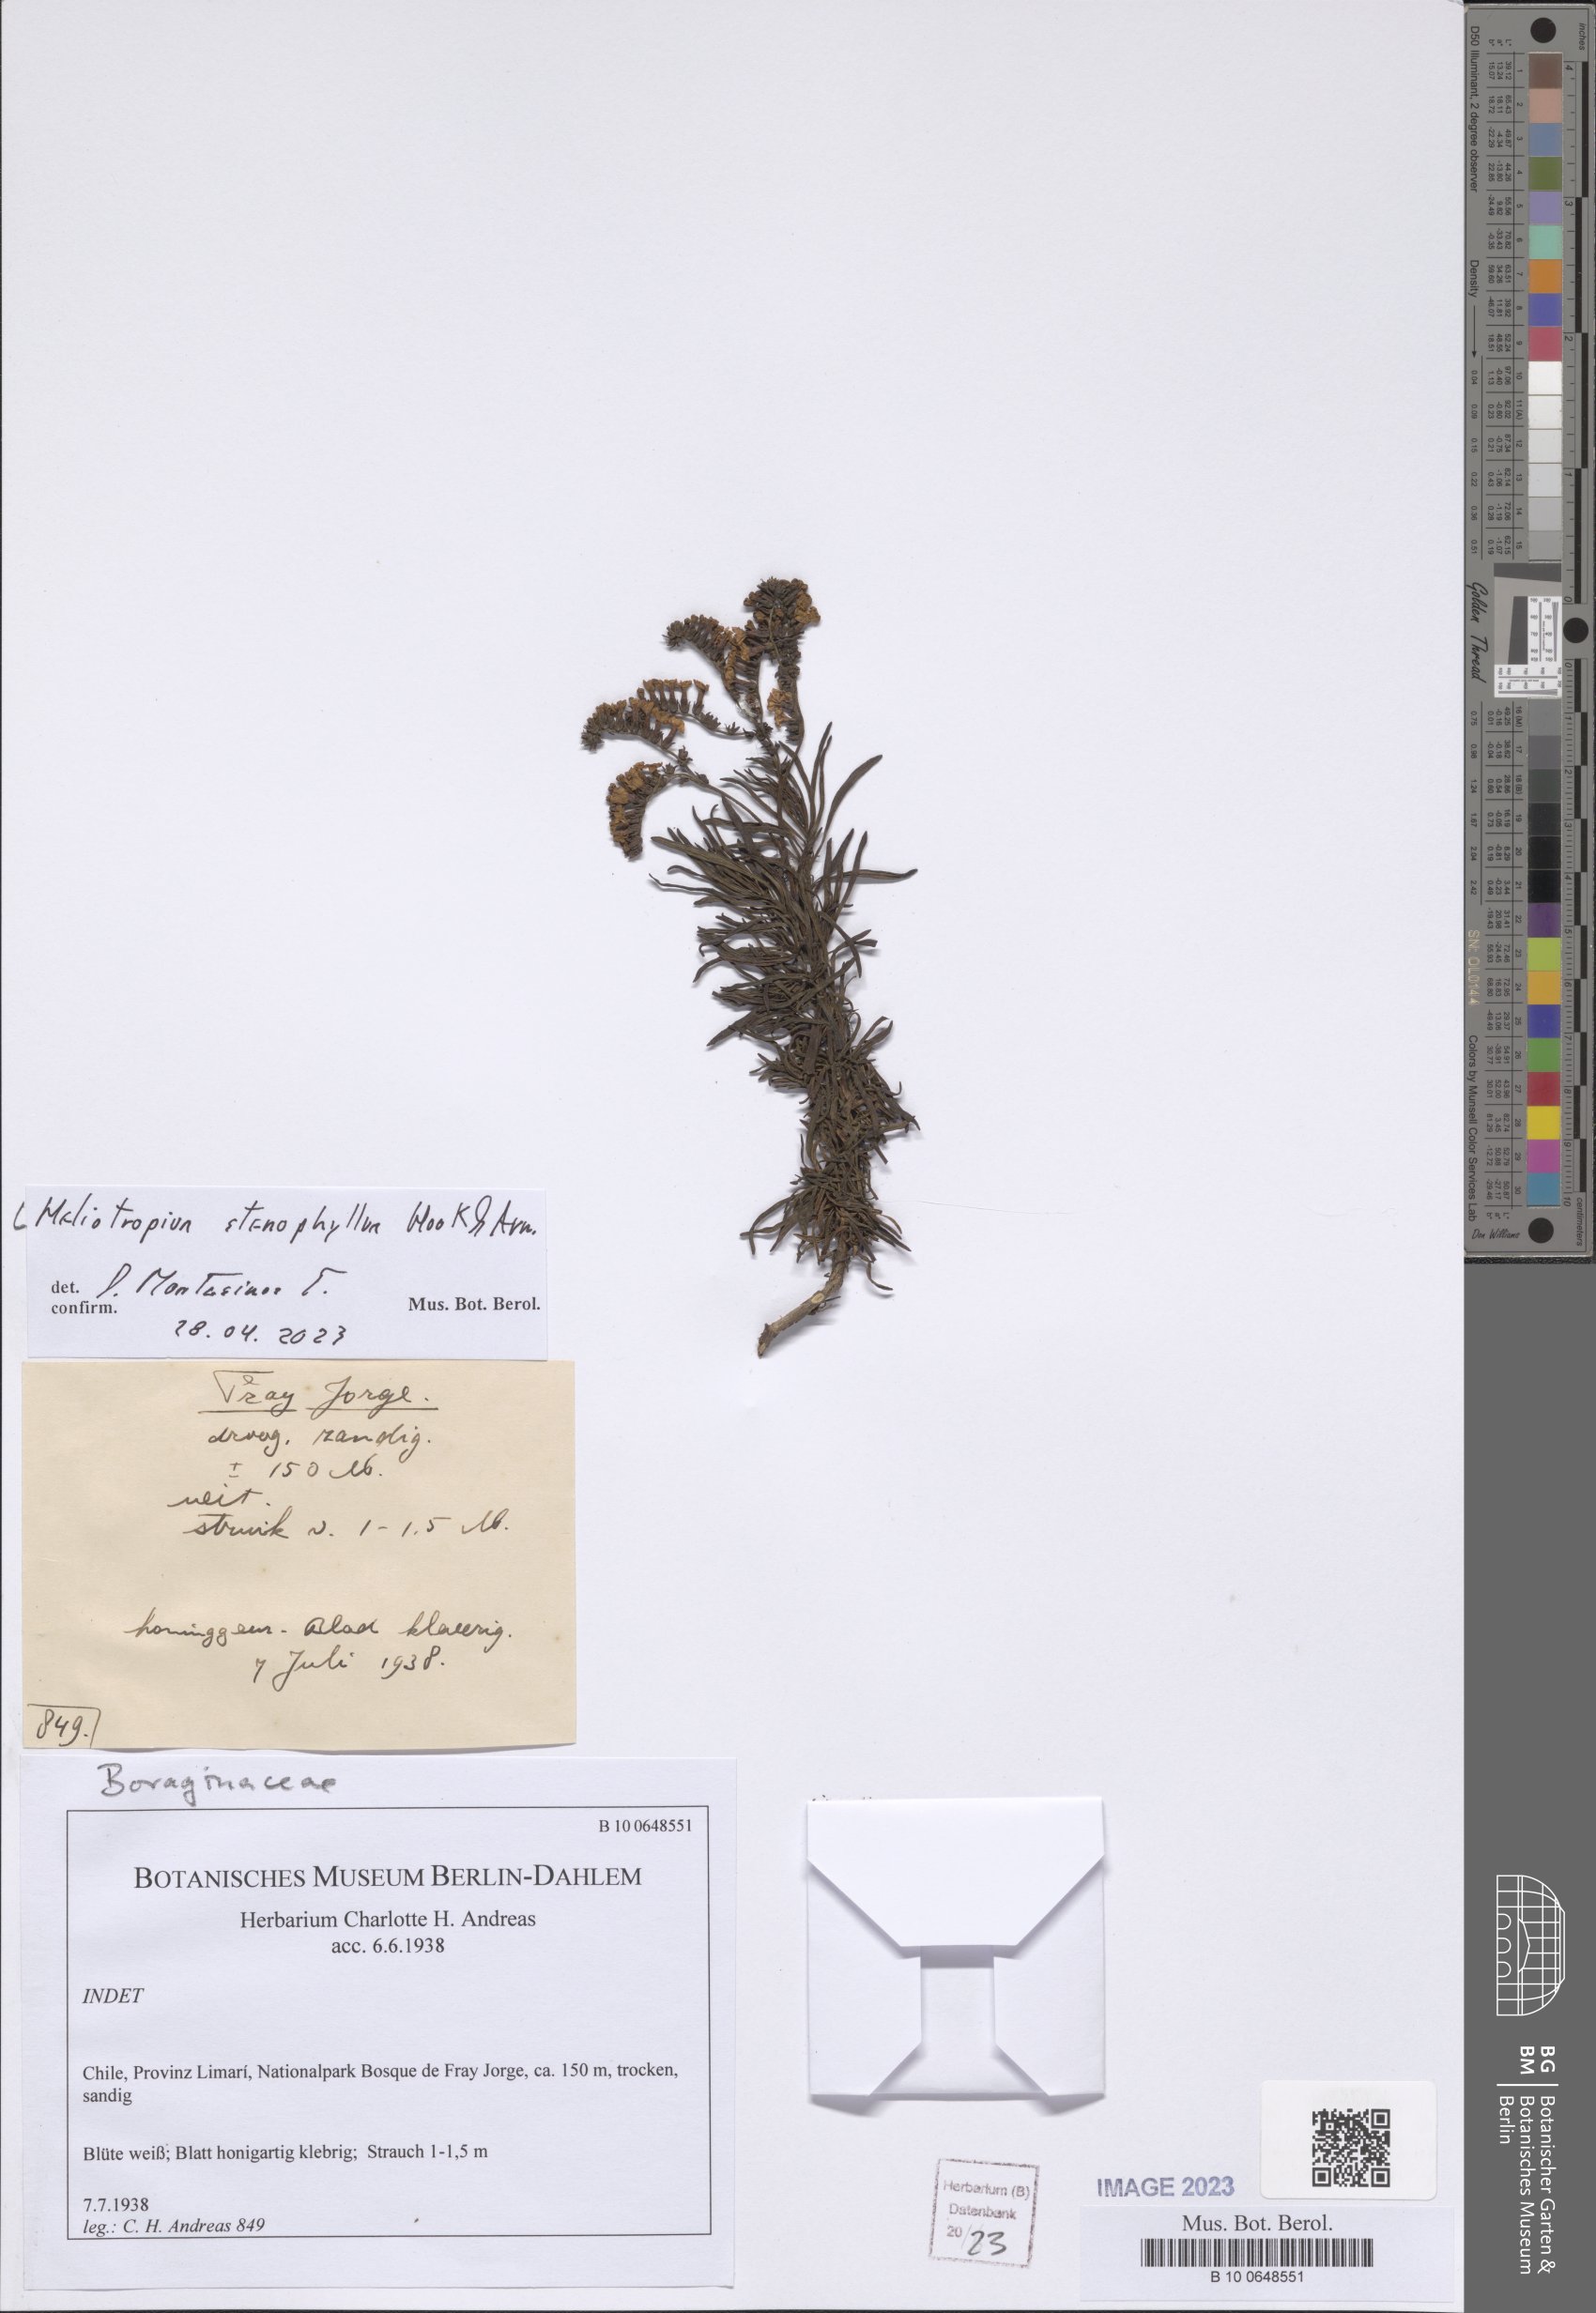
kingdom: Plantae
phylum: Tracheophyta
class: Magnoliopsida
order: Boraginales
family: Heliotropiaceae
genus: Heliotropium
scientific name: Heliotropium stenophyllum
